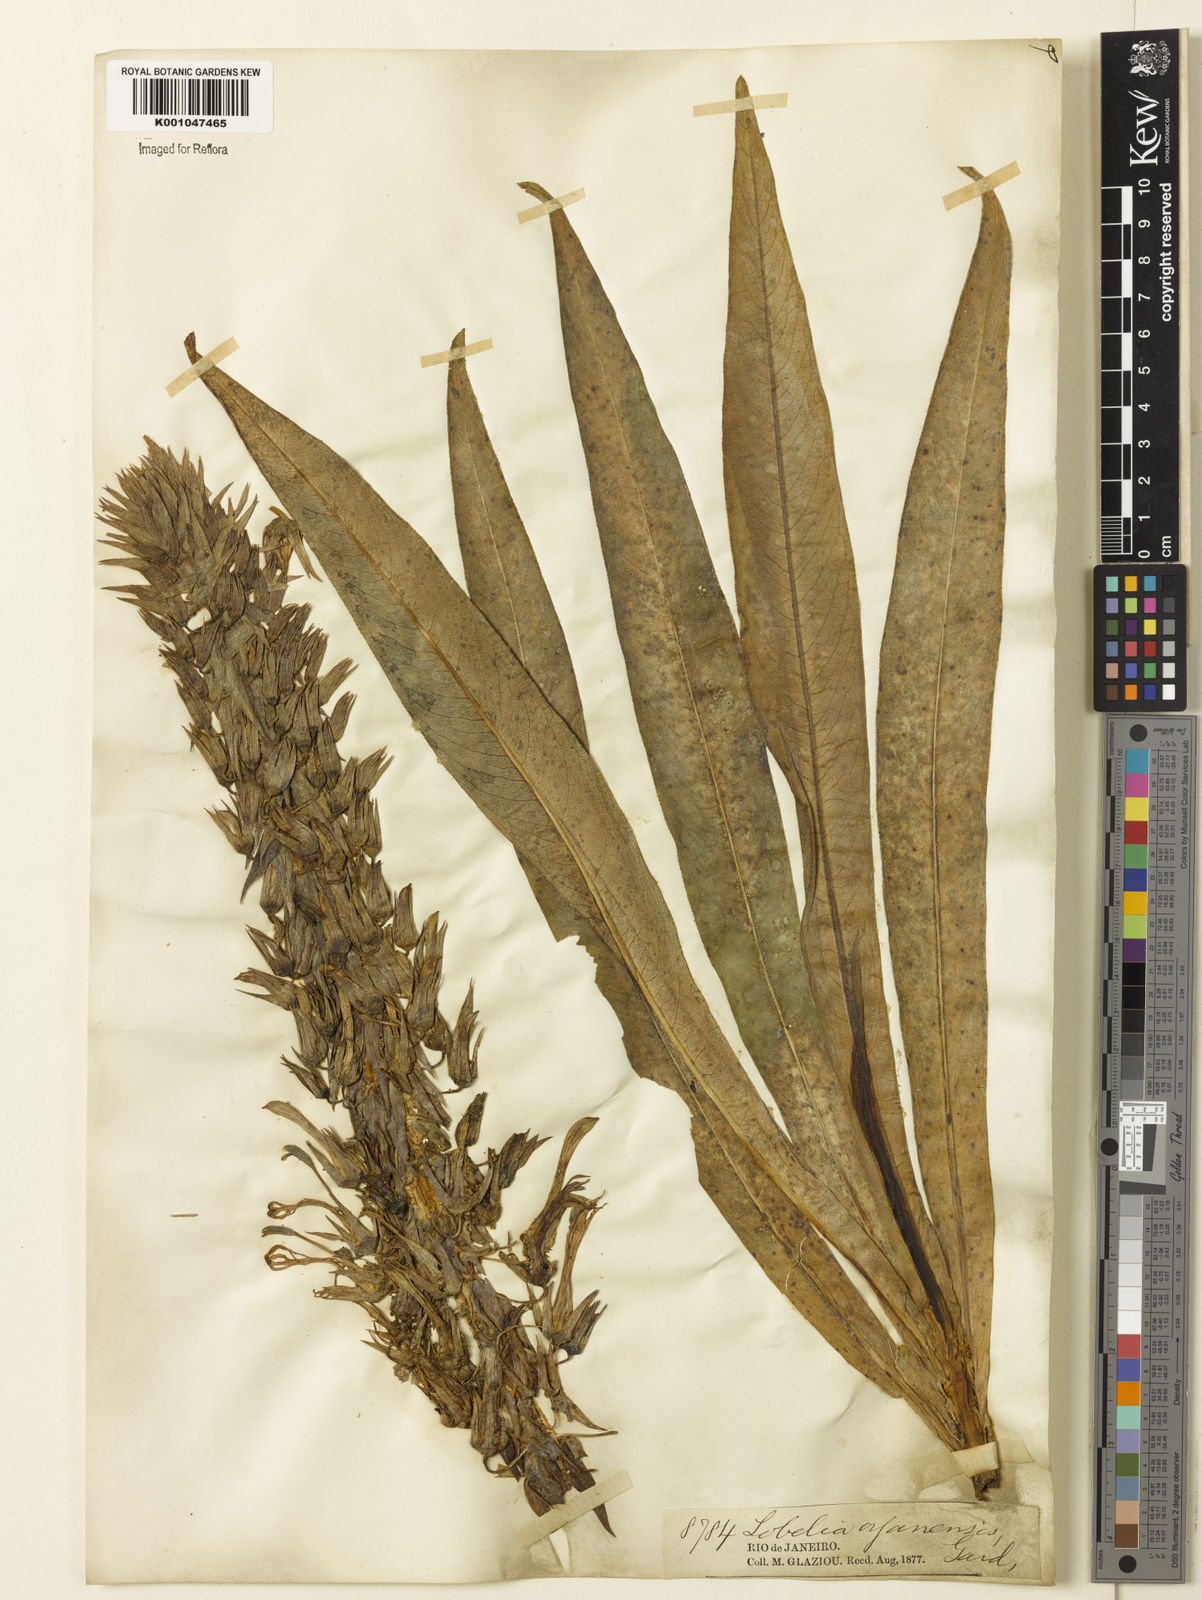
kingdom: Plantae
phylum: Tracheophyta
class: Magnoliopsida
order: Asterales
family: Campanulaceae
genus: Lobelia
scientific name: Lobelia organensis
